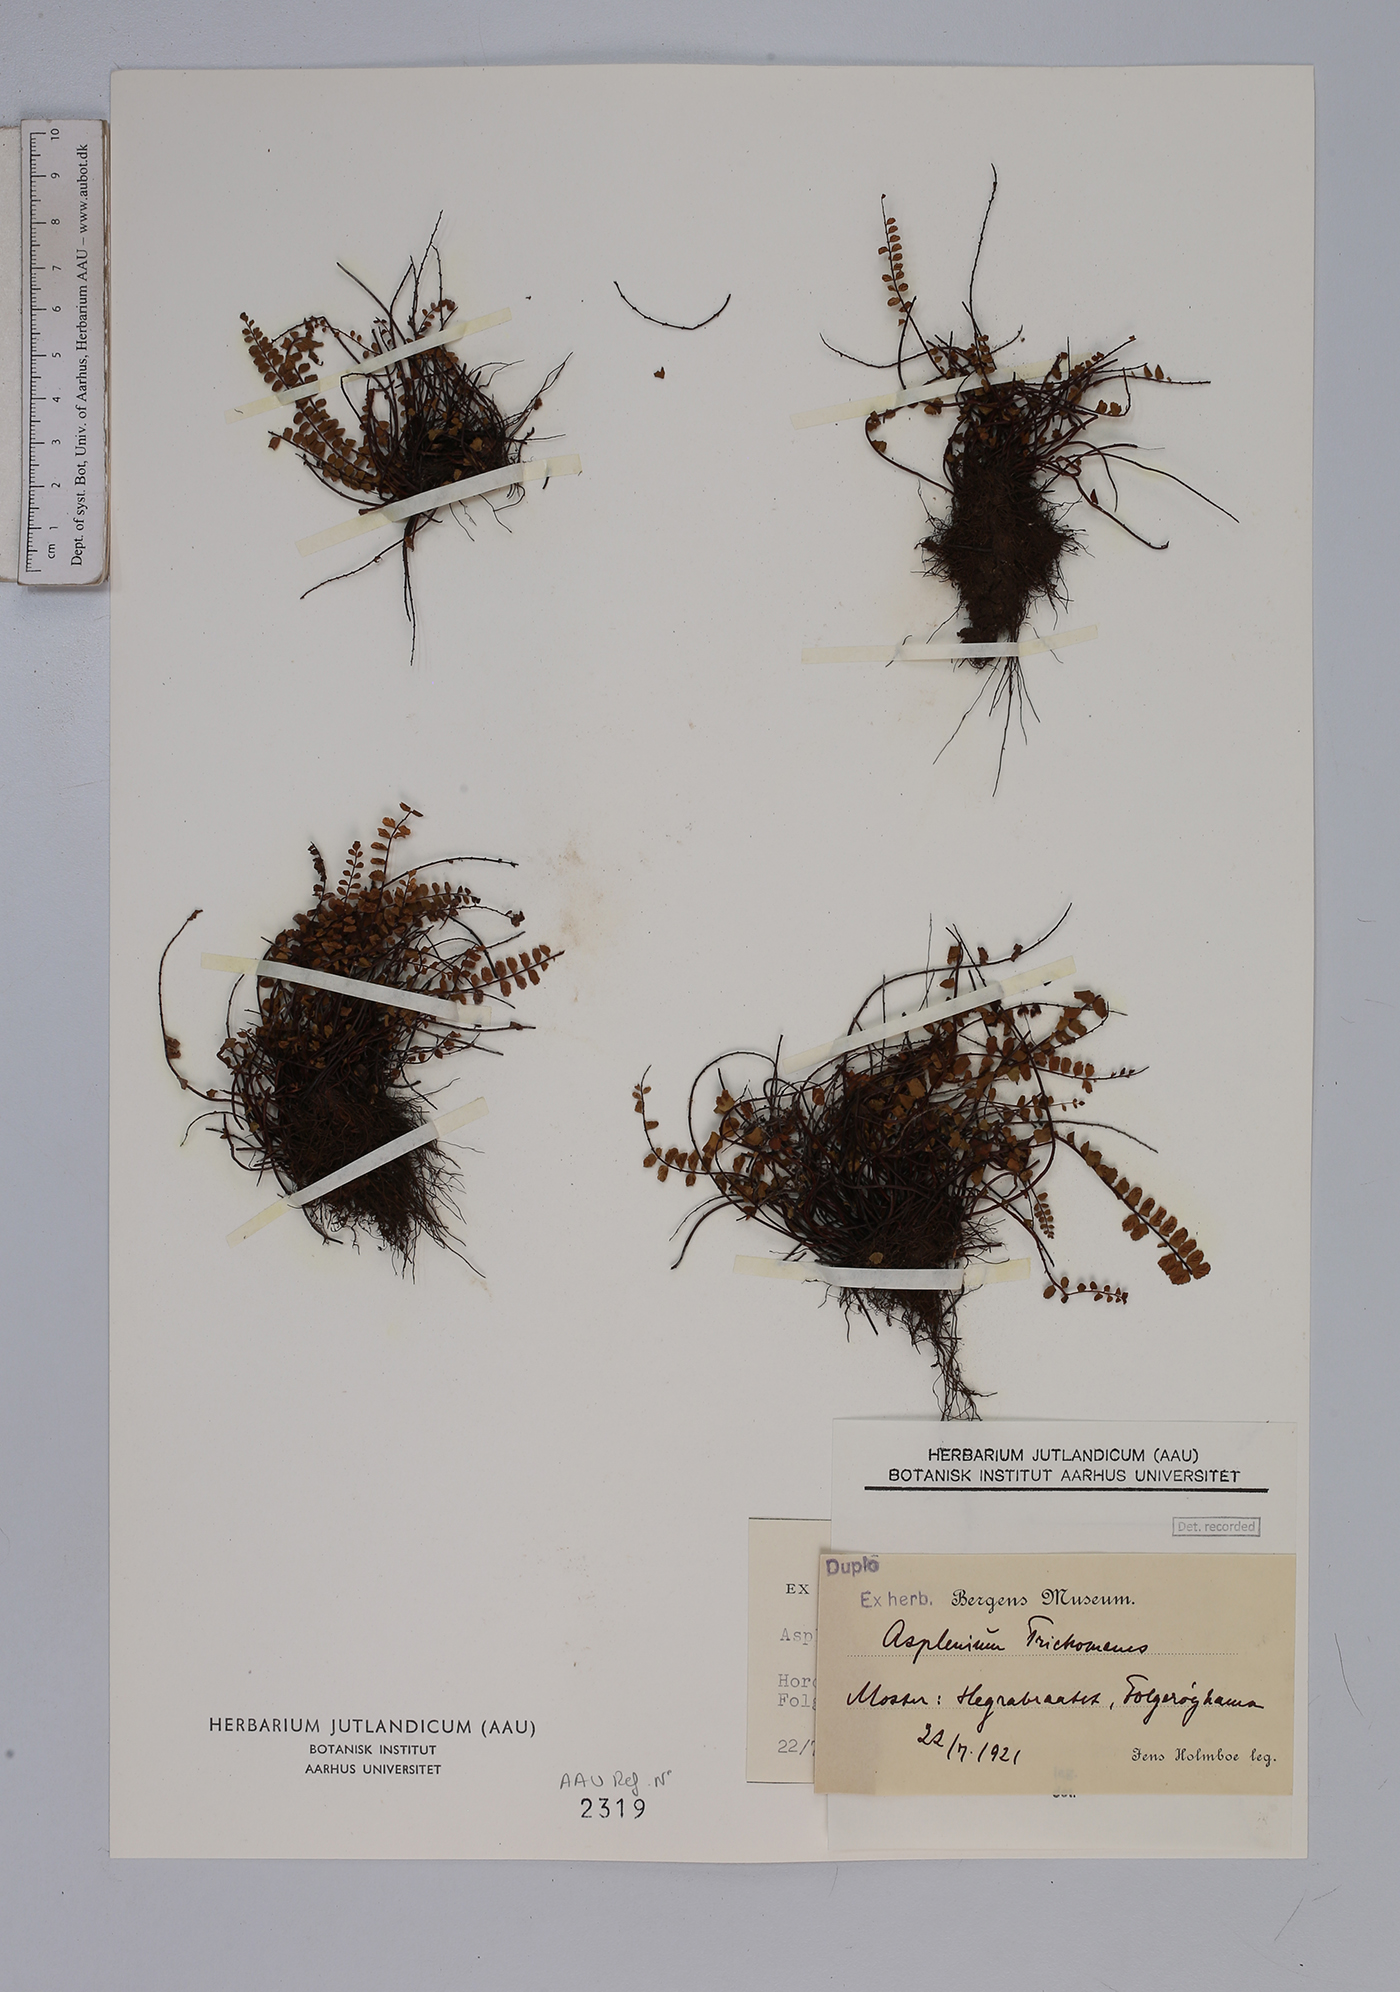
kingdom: Plantae
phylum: Tracheophyta
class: Polypodiopsida
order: Polypodiales
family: Aspleniaceae
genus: Asplenium
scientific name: Asplenium trichomanes
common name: Maidenhair spleenwort
